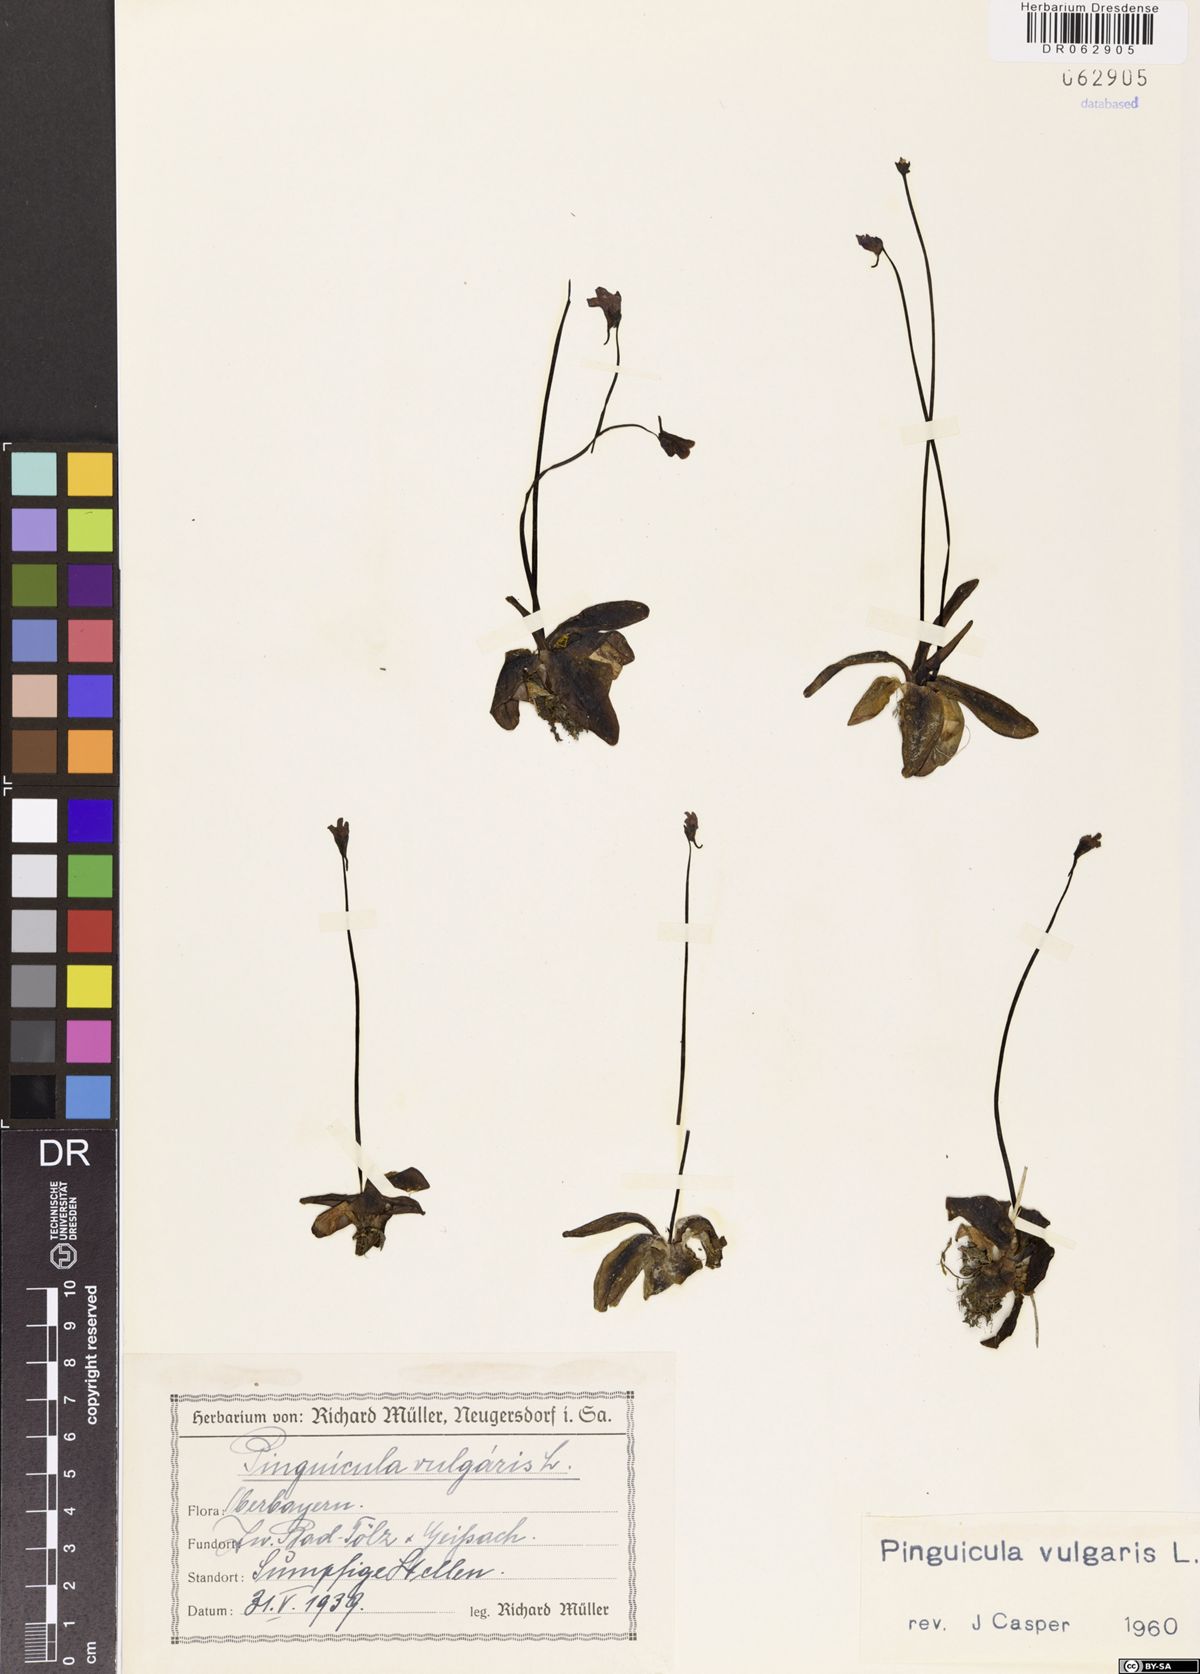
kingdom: Plantae
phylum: Tracheophyta
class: Magnoliopsida
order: Lamiales
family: Lentibulariaceae
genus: Pinguicula
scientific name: Pinguicula vulgaris
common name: Common butterwort
